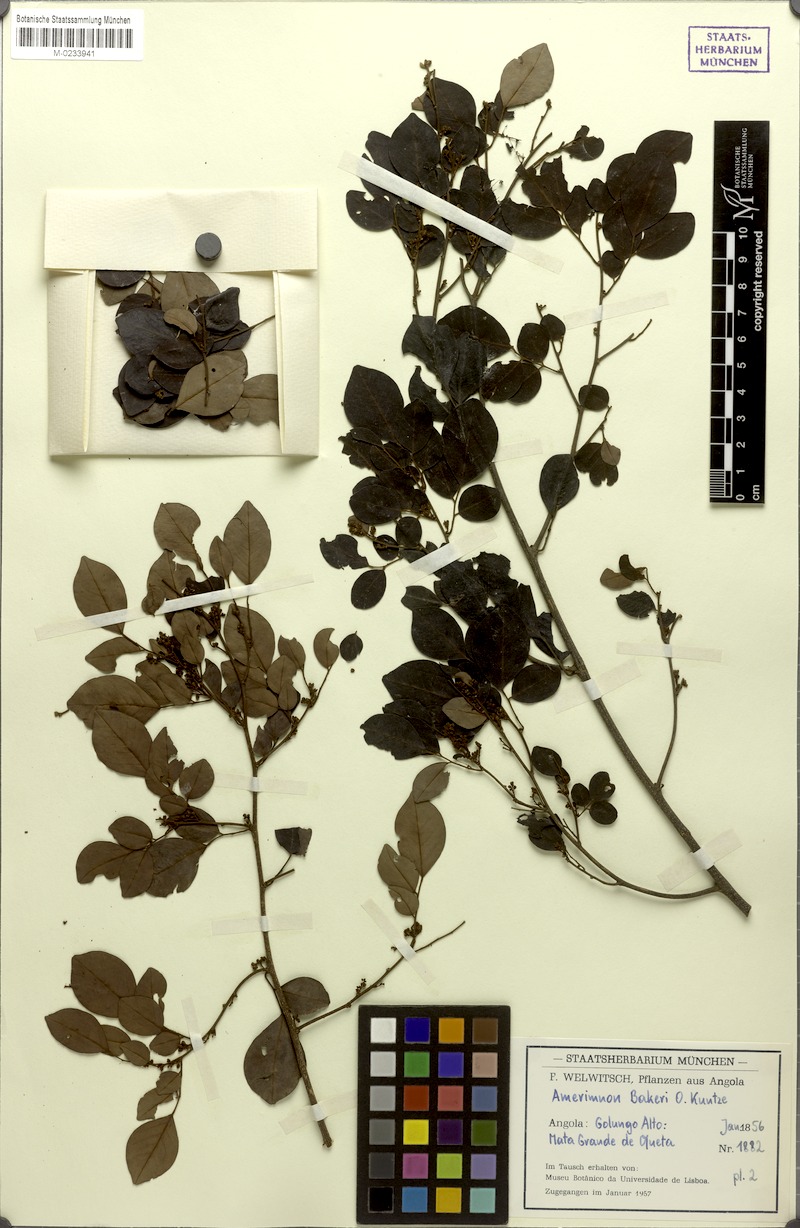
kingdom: Plantae
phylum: Tracheophyta
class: Magnoliopsida
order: Fabales
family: Fabaceae
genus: Dalbergia
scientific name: Dalbergia bakeri
